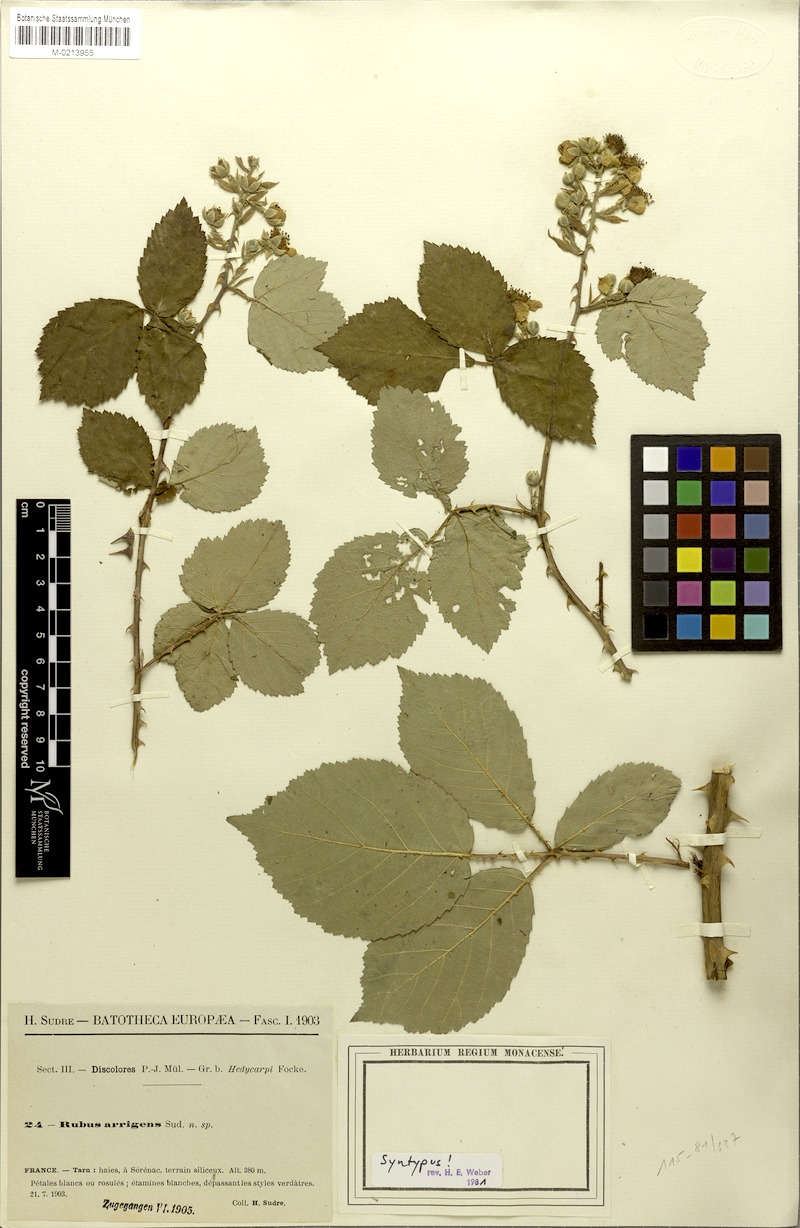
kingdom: Plantae
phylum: Tracheophyta
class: Magnoliopsida
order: Rosales
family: Rosaceae
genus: Rubus
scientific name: Rubus arrigens
